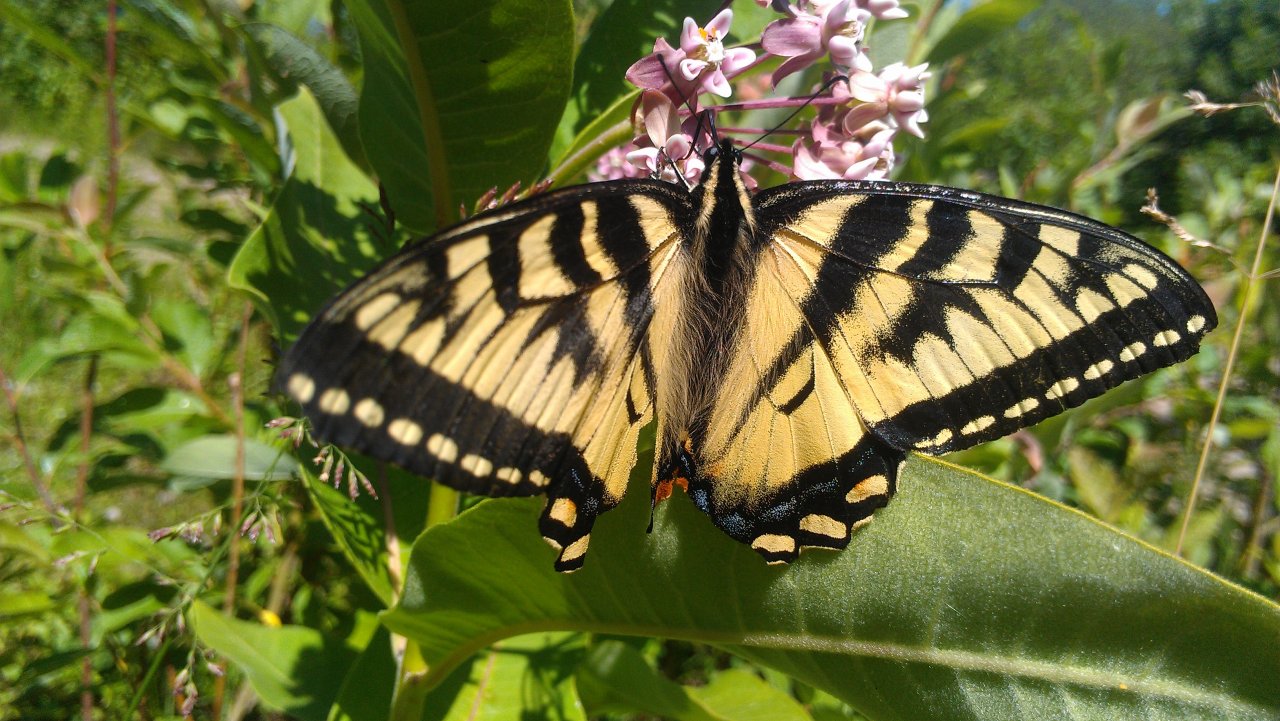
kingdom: Animalia
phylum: Arthropoda
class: Insecta
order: Lepidoptera
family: Papilionidae
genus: Pterourus
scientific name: Pterourus canadensis
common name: Canadian Tiger Swallowtail
